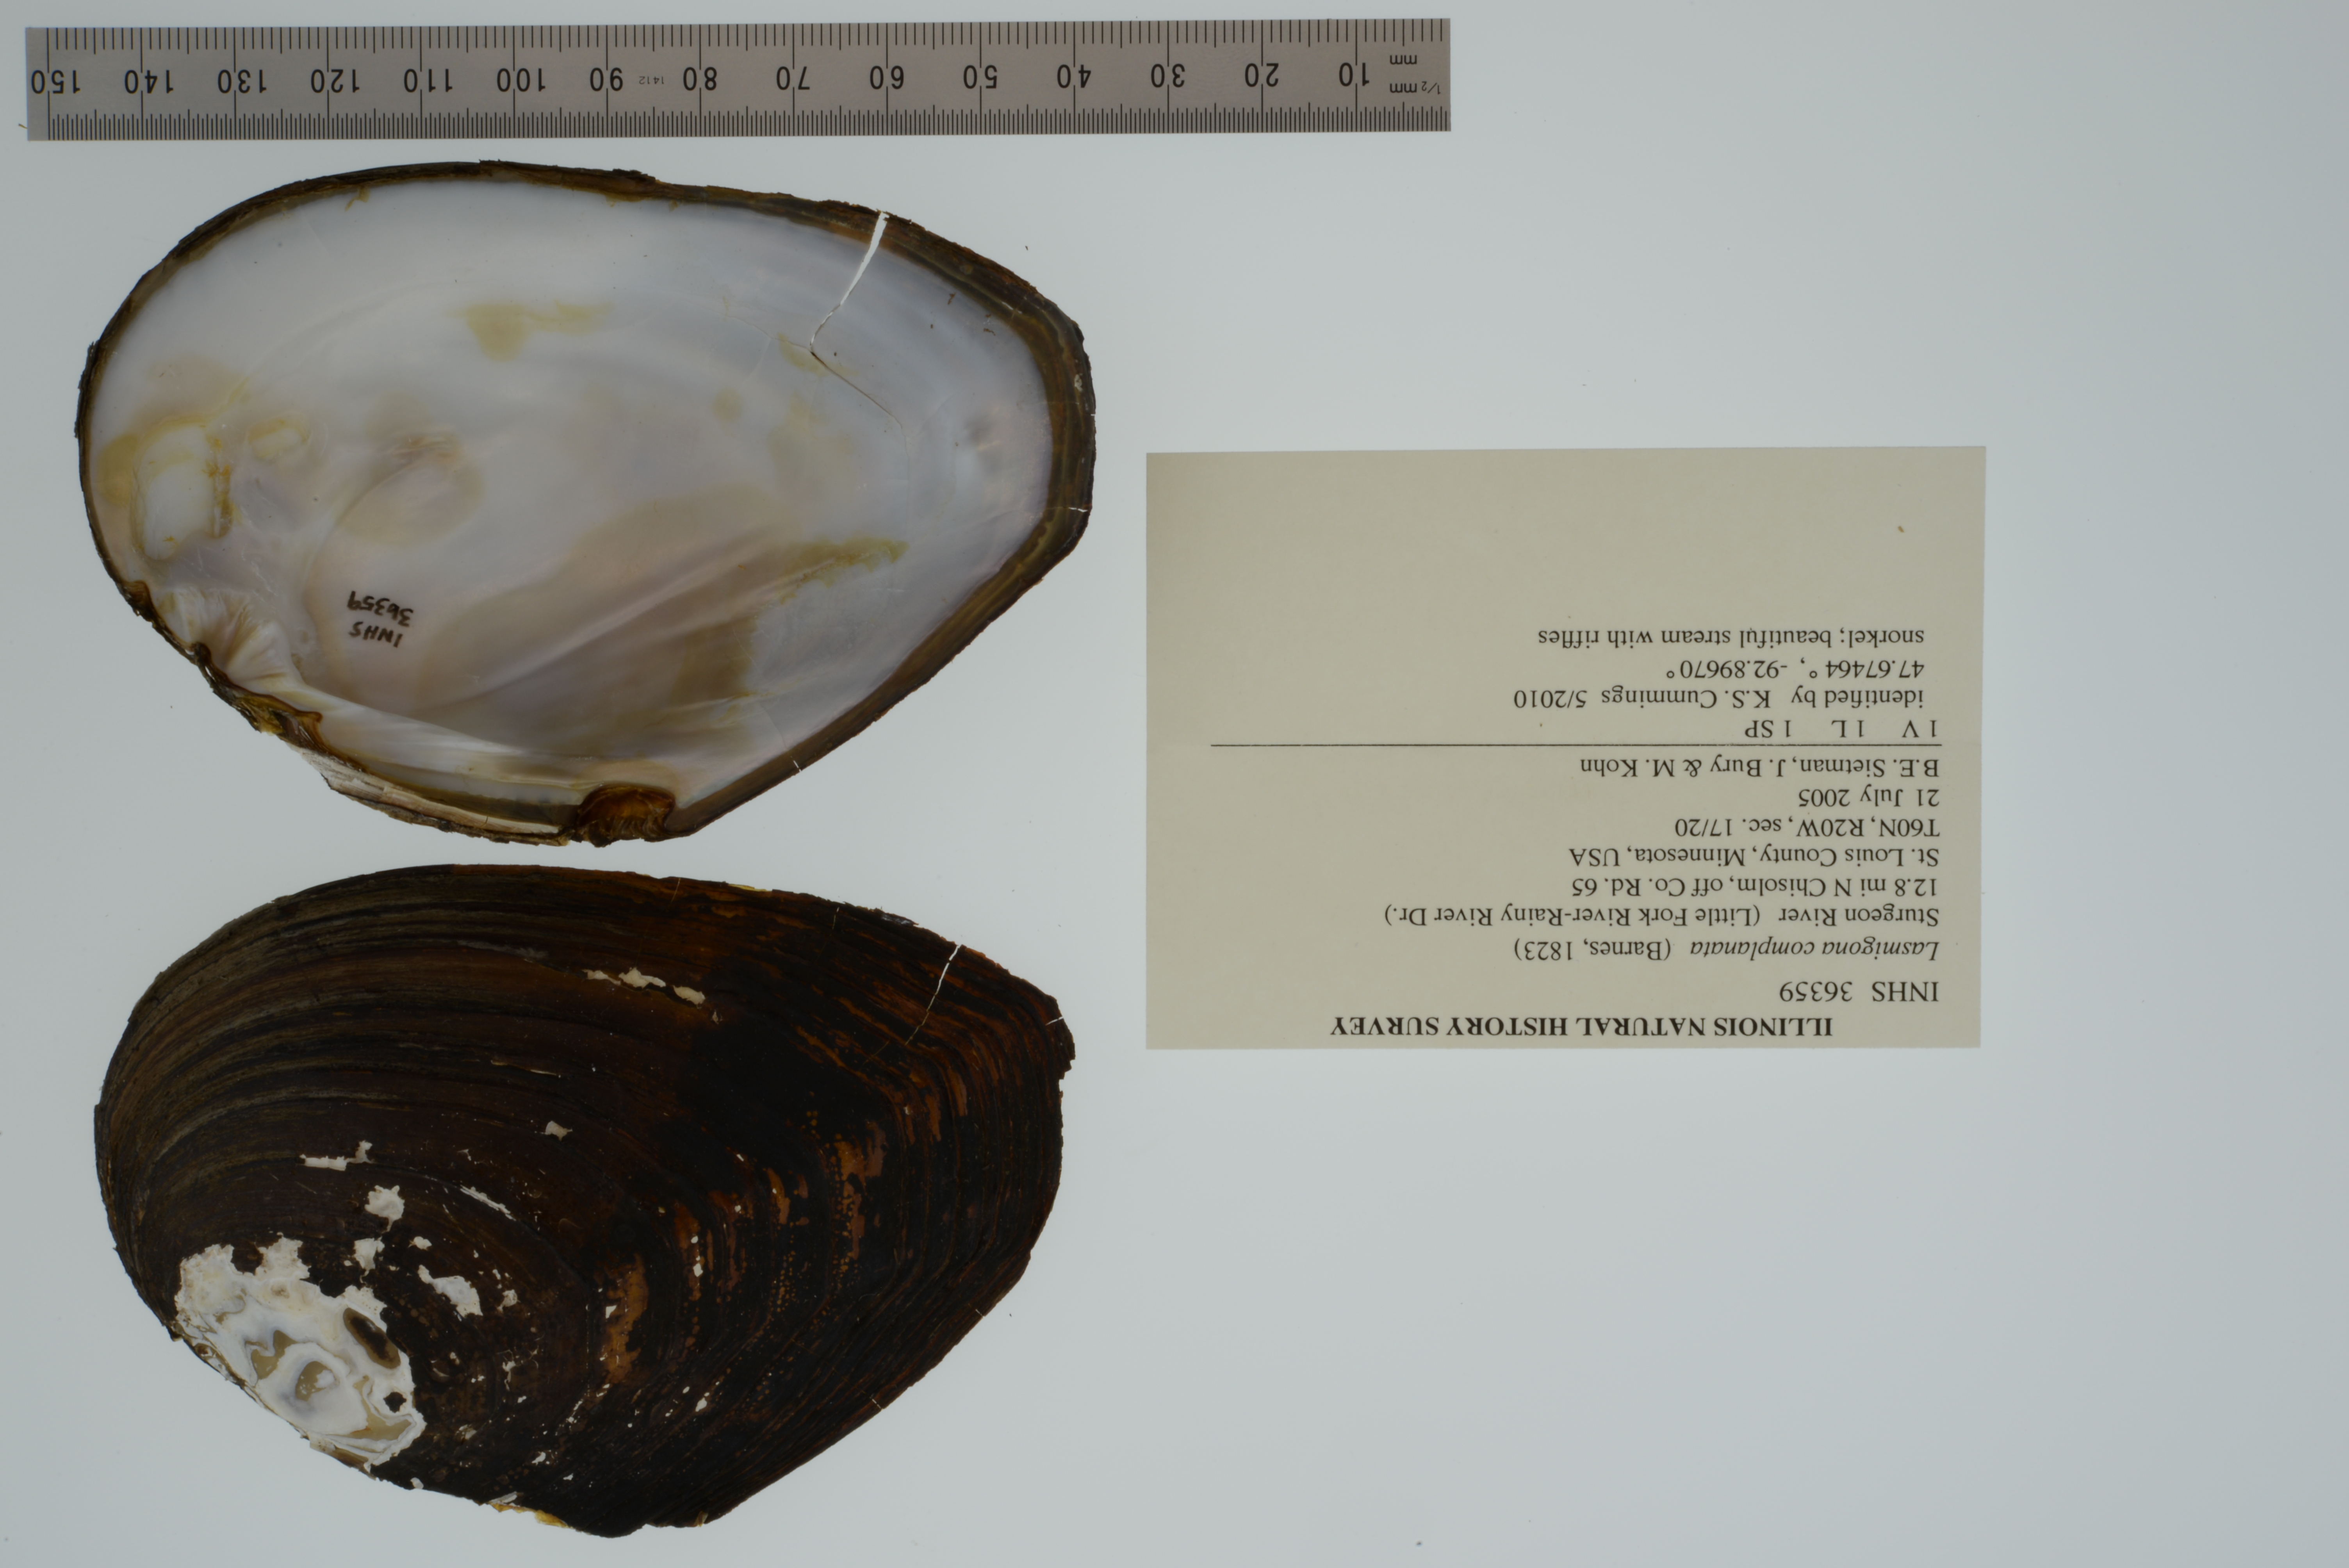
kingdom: Animalia
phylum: Mollusca
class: Bivalvia
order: Unionida
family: Unionidae
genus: Lasmigona
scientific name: Lasmigona complanata
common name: White heelsplitter
